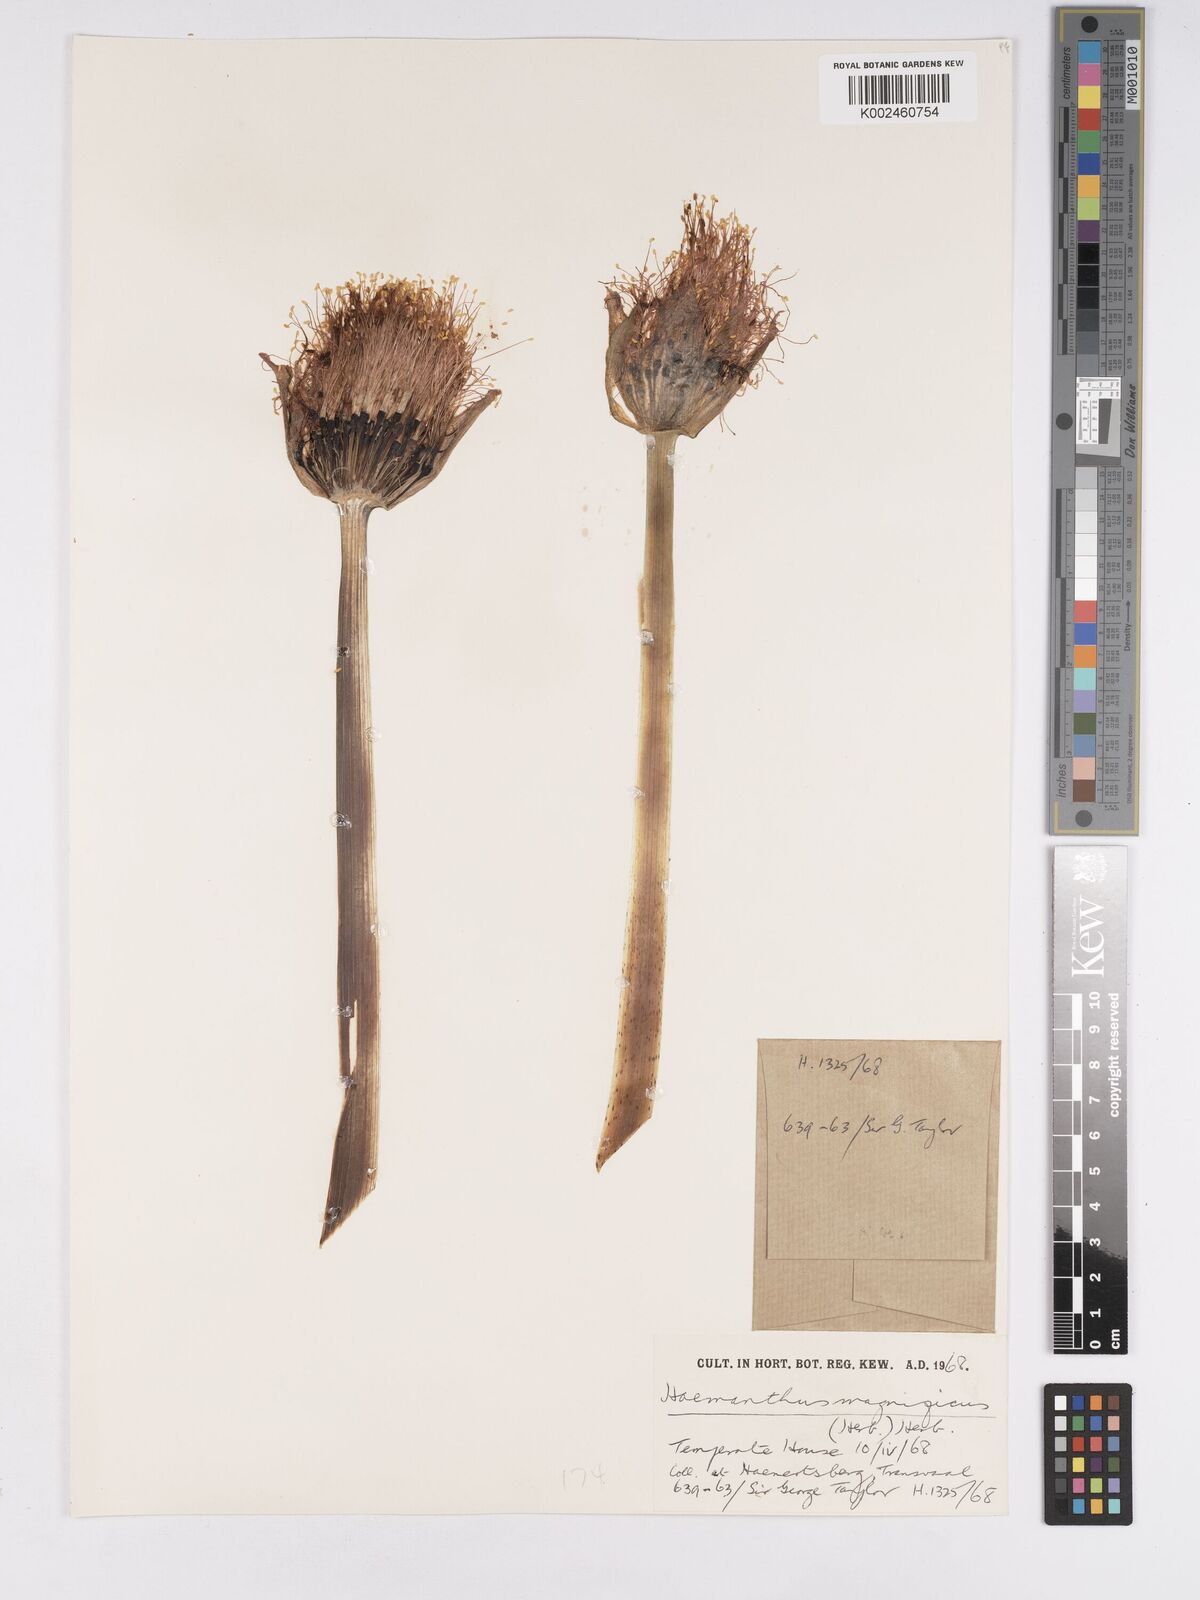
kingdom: Plantae
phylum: Tracheophyta
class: Liliopsida
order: Asparagales
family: Amaryllidaceae
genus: Scadoxus
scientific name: Scadoxus puniceus
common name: Royal-paintbrush
